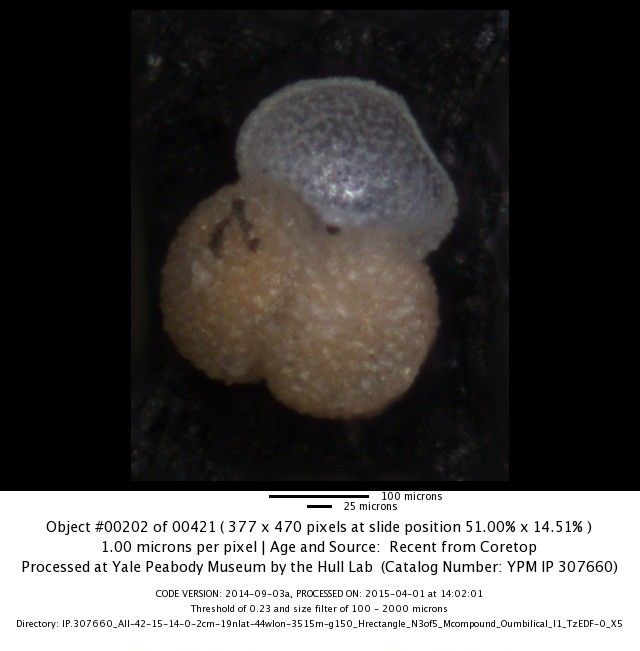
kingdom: Chromista
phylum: Foraminifera
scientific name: Foraminifera
